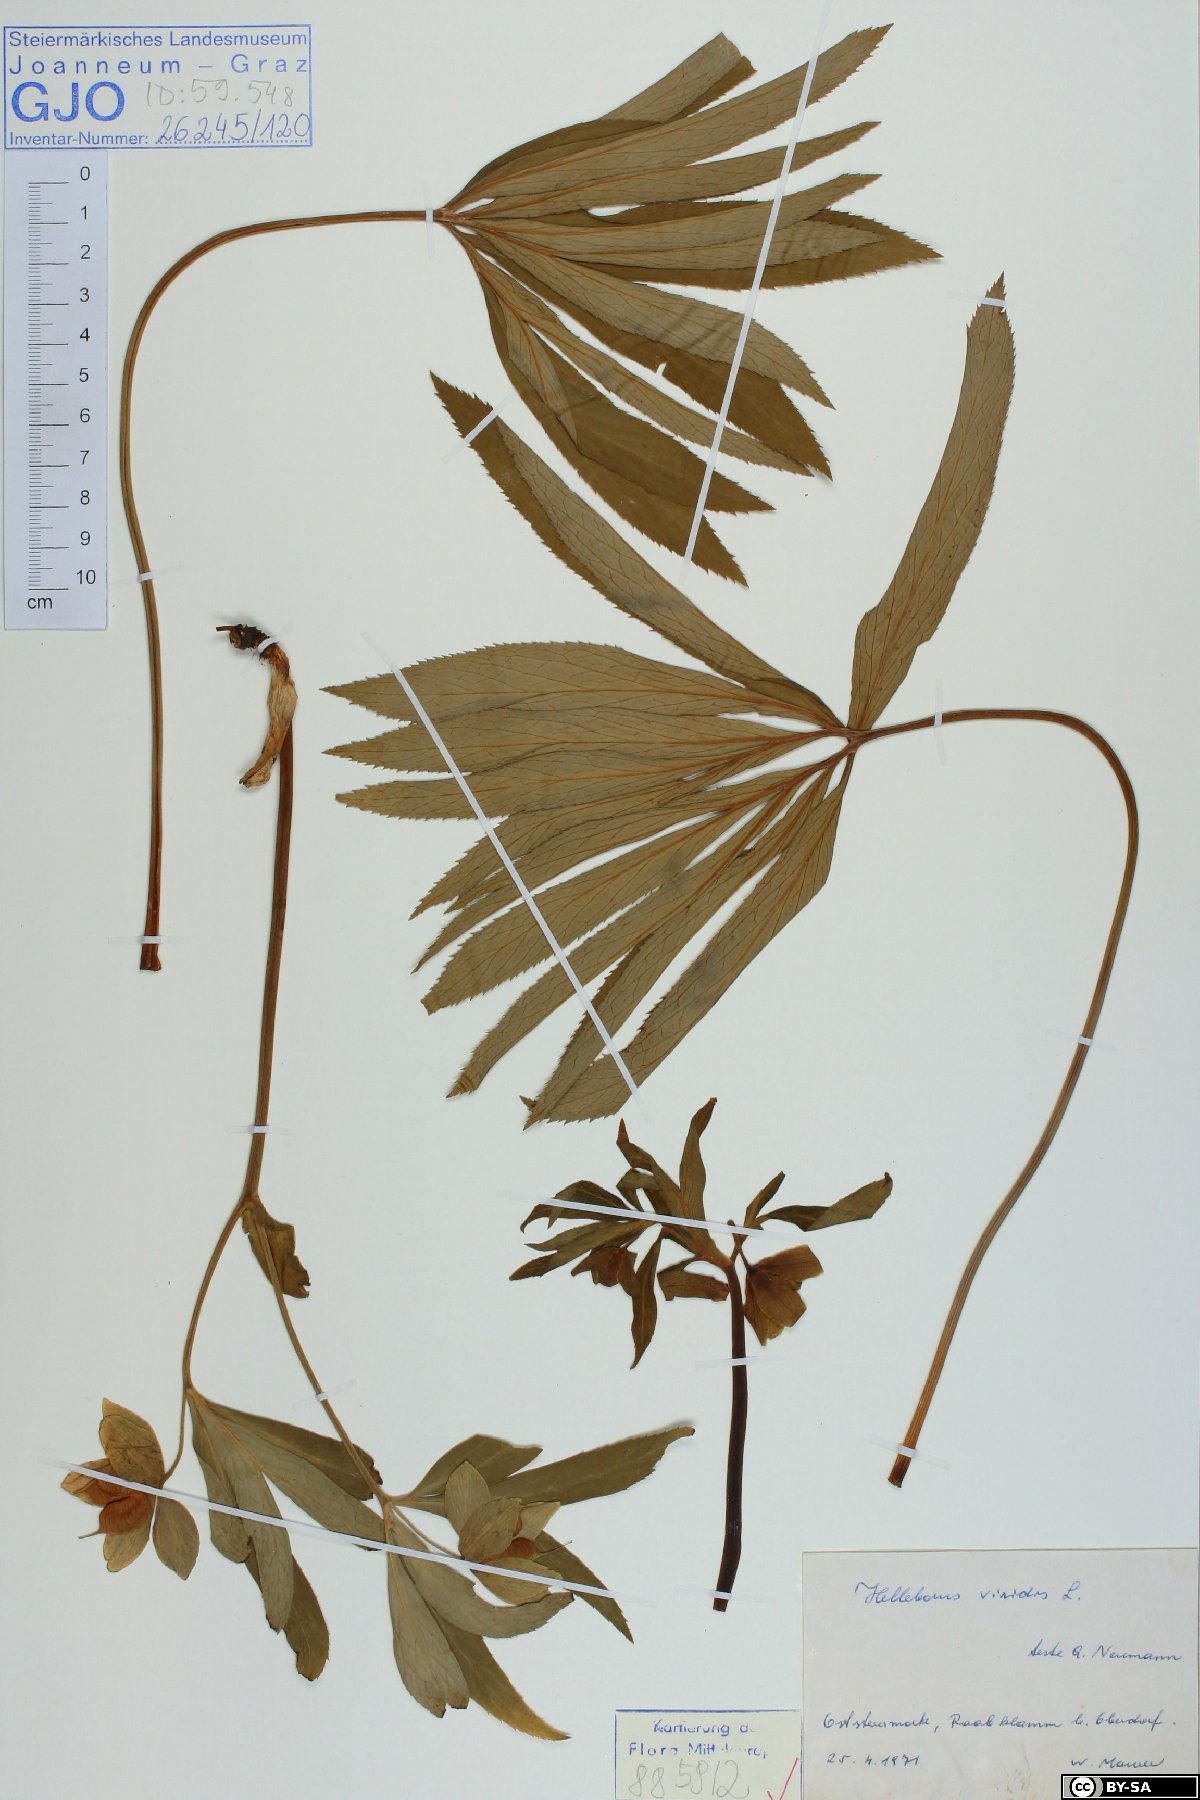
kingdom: Plantae
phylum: Tracheophyta
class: Magnoliopsida
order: Ranunculales
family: Ranunculaceae
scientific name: Ranunculaceae
